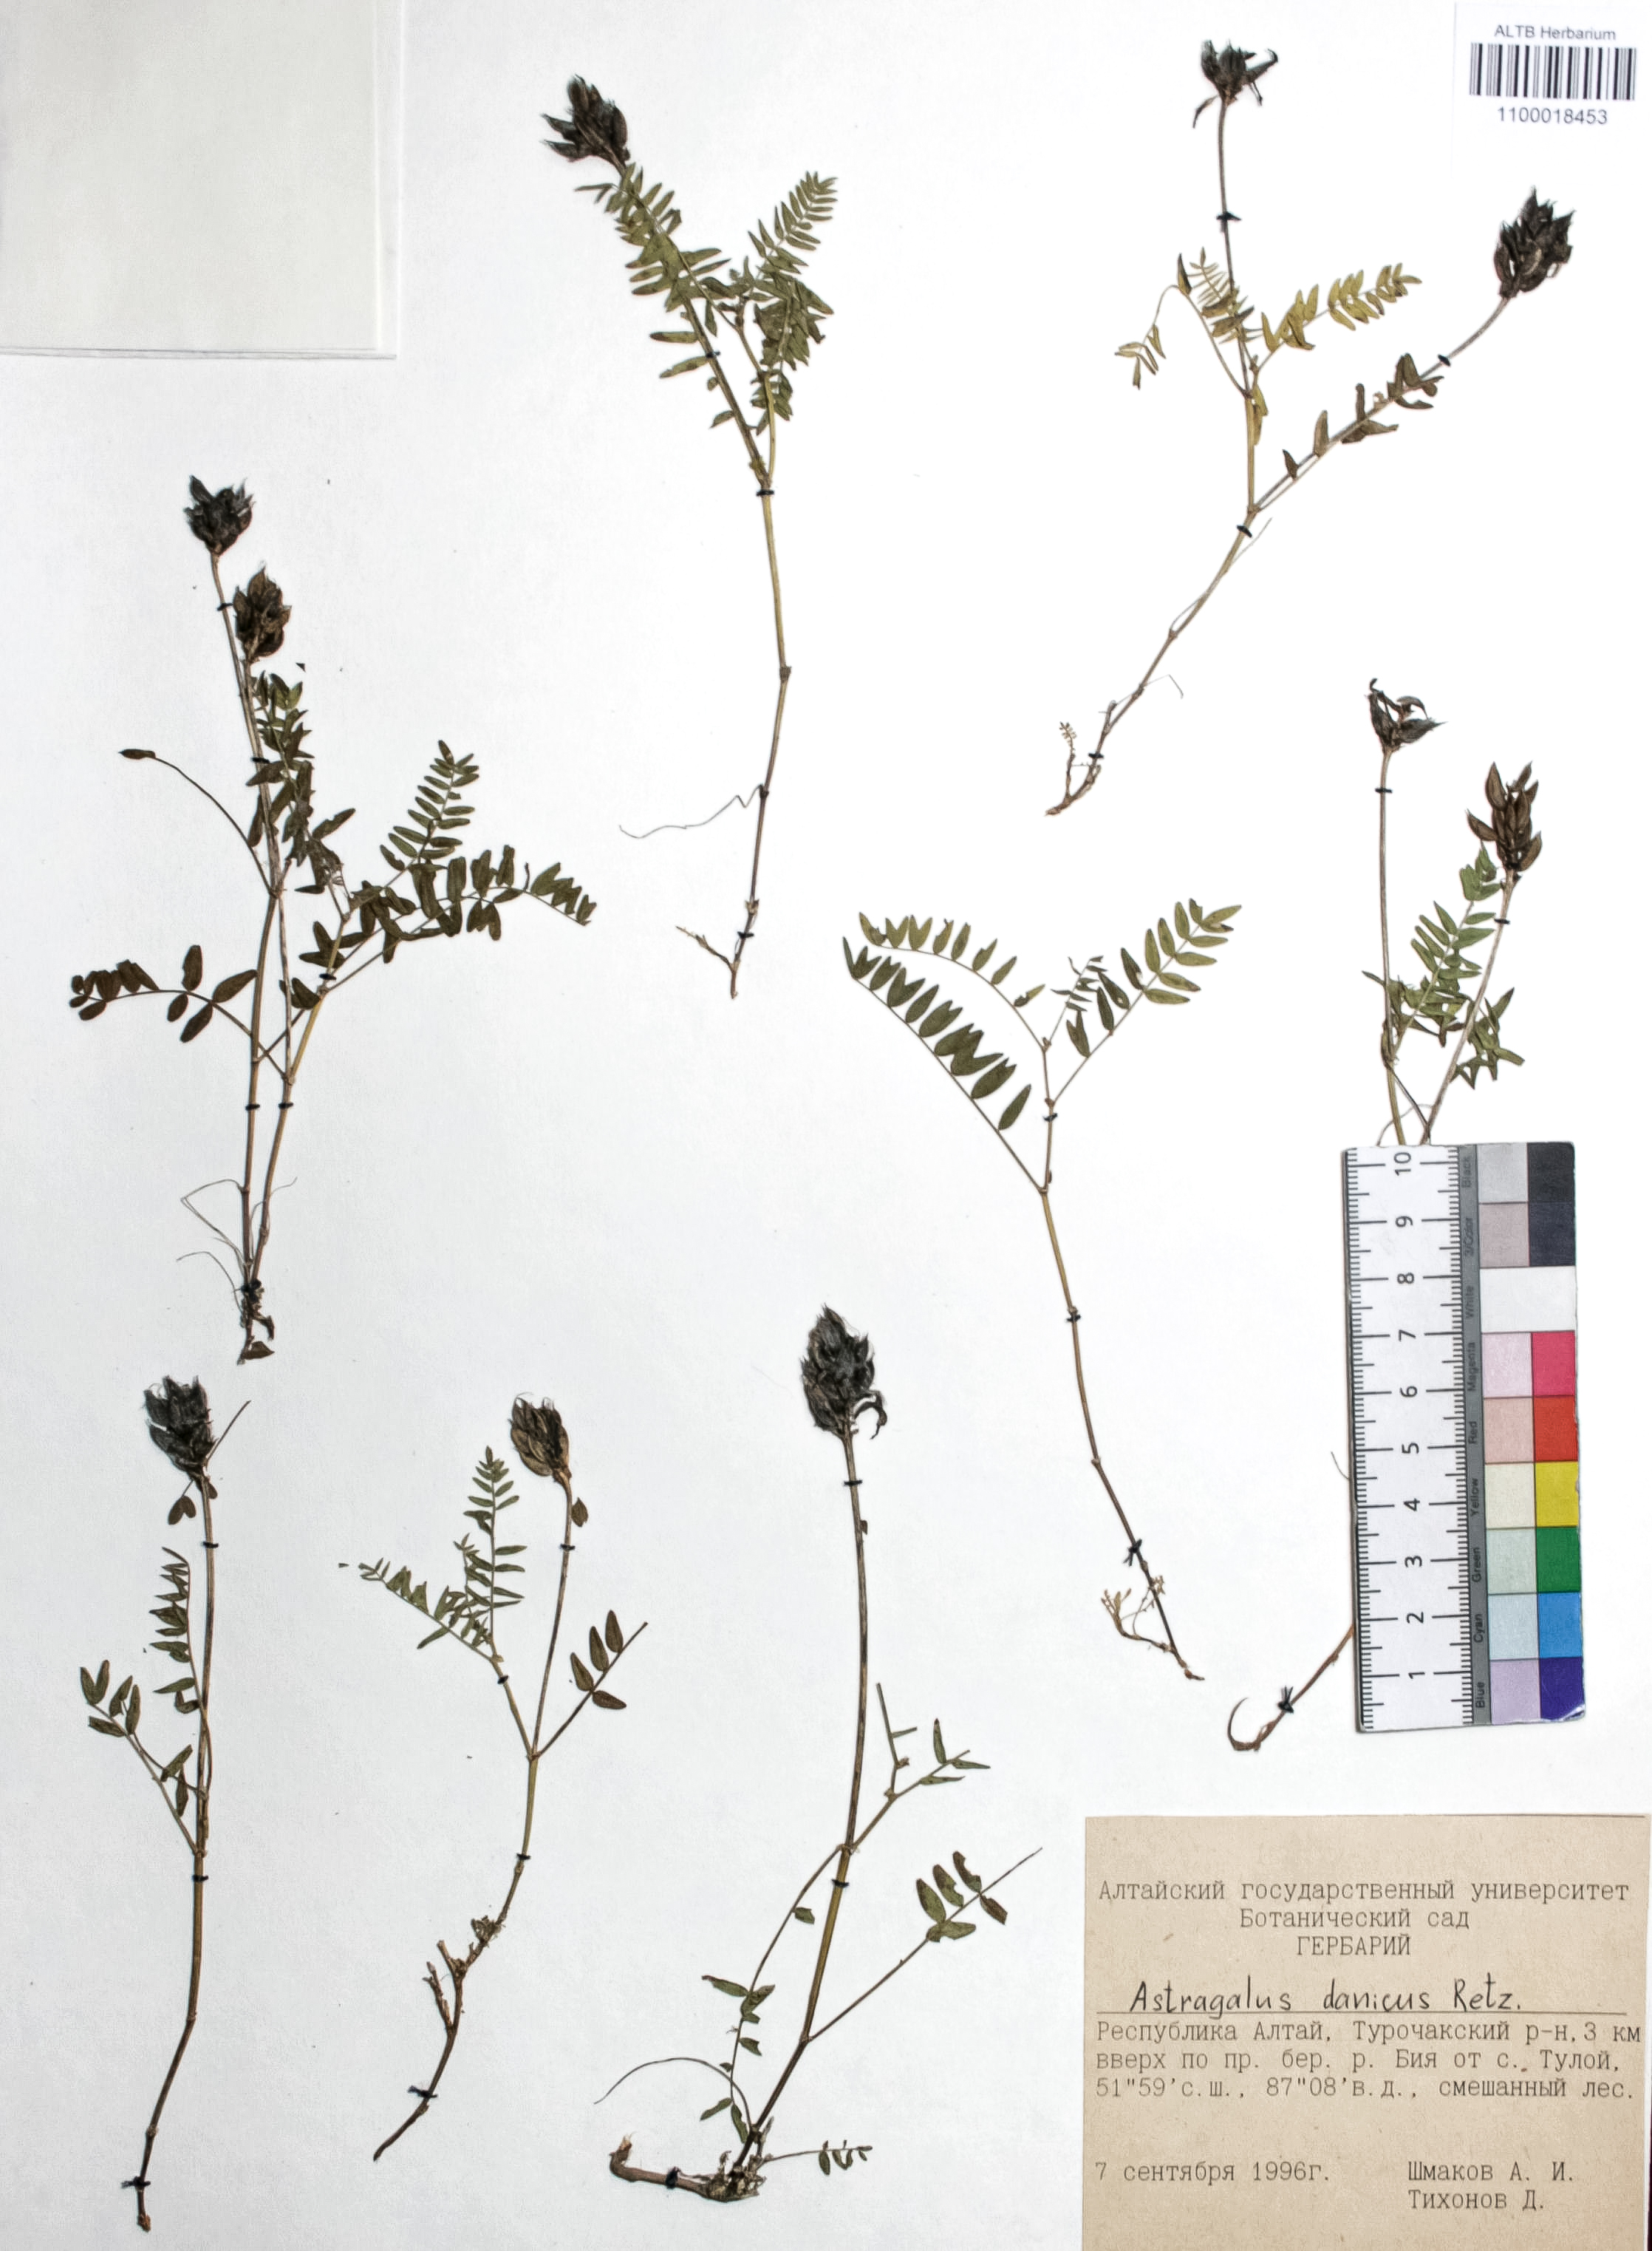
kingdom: Plantae
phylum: Tracheophyta
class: Magnoliopsida
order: Fabales
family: Fabaceae
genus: Astragalus
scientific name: Astragalus danicus
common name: Purple milk-vetch
